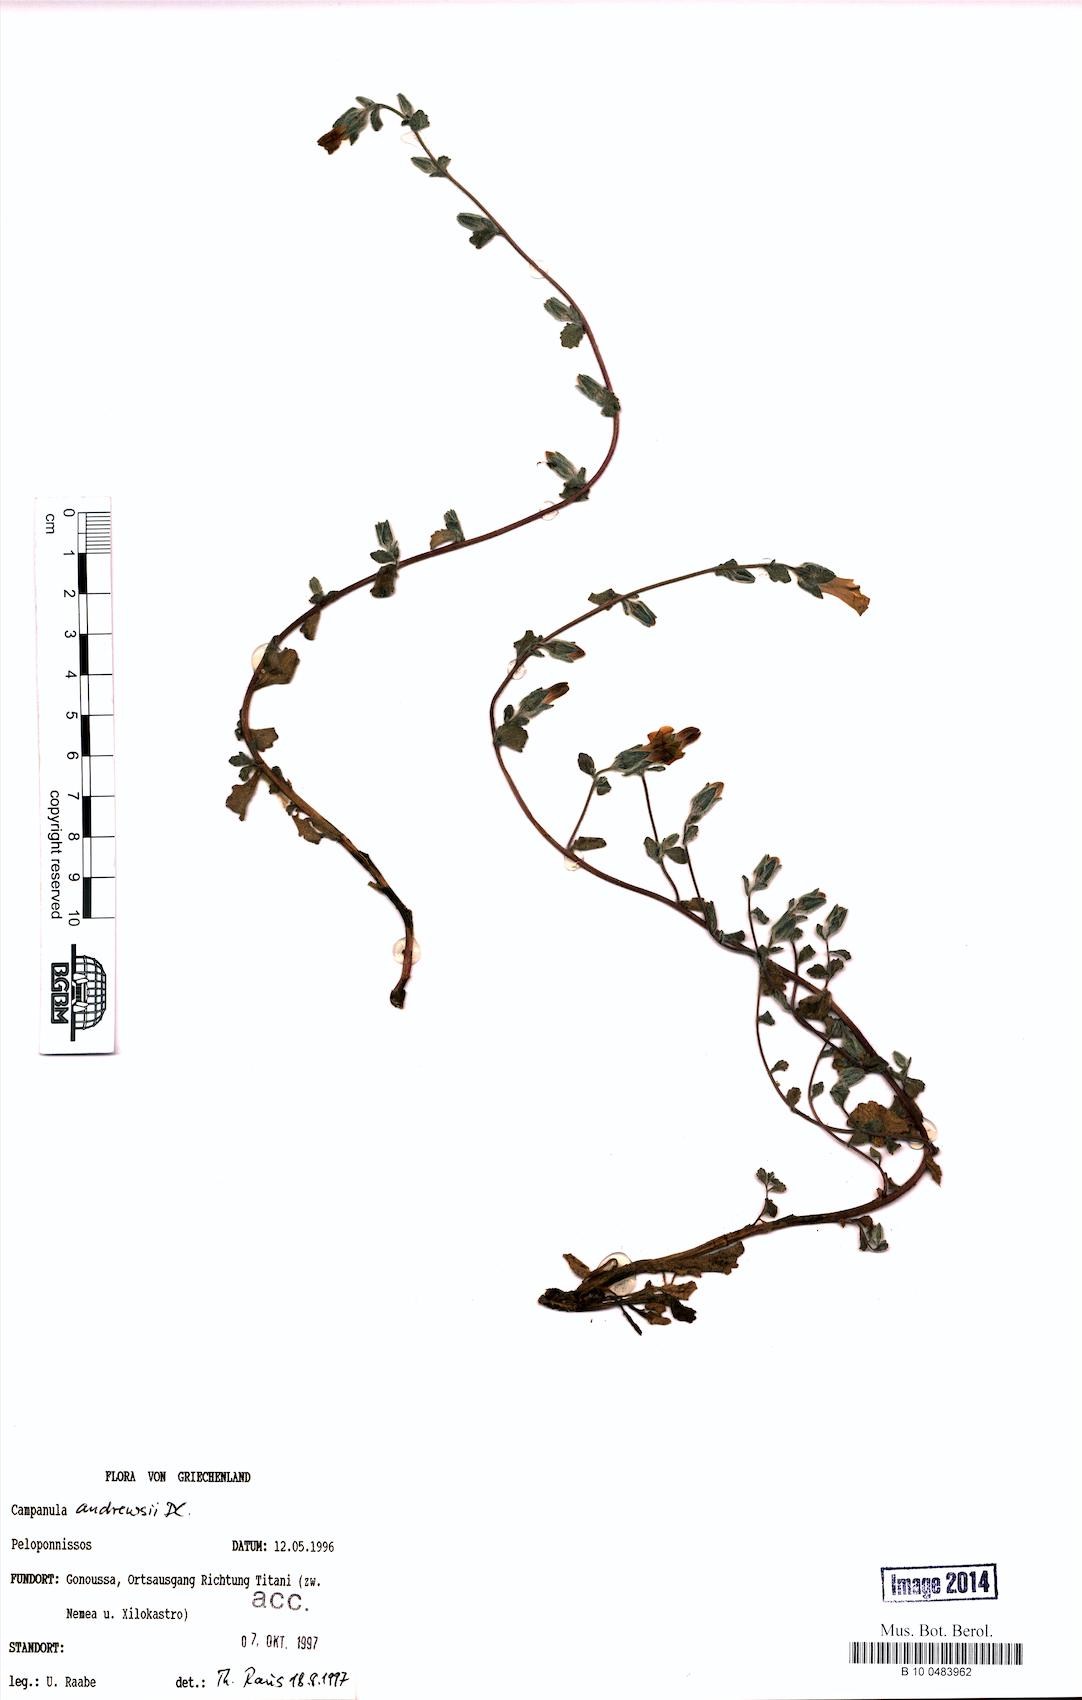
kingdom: Plantae
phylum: Tracheophyta
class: Magnoliopsida
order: Asterales
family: Campanulaceae
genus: Campanula
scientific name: Campanula andrewsii
